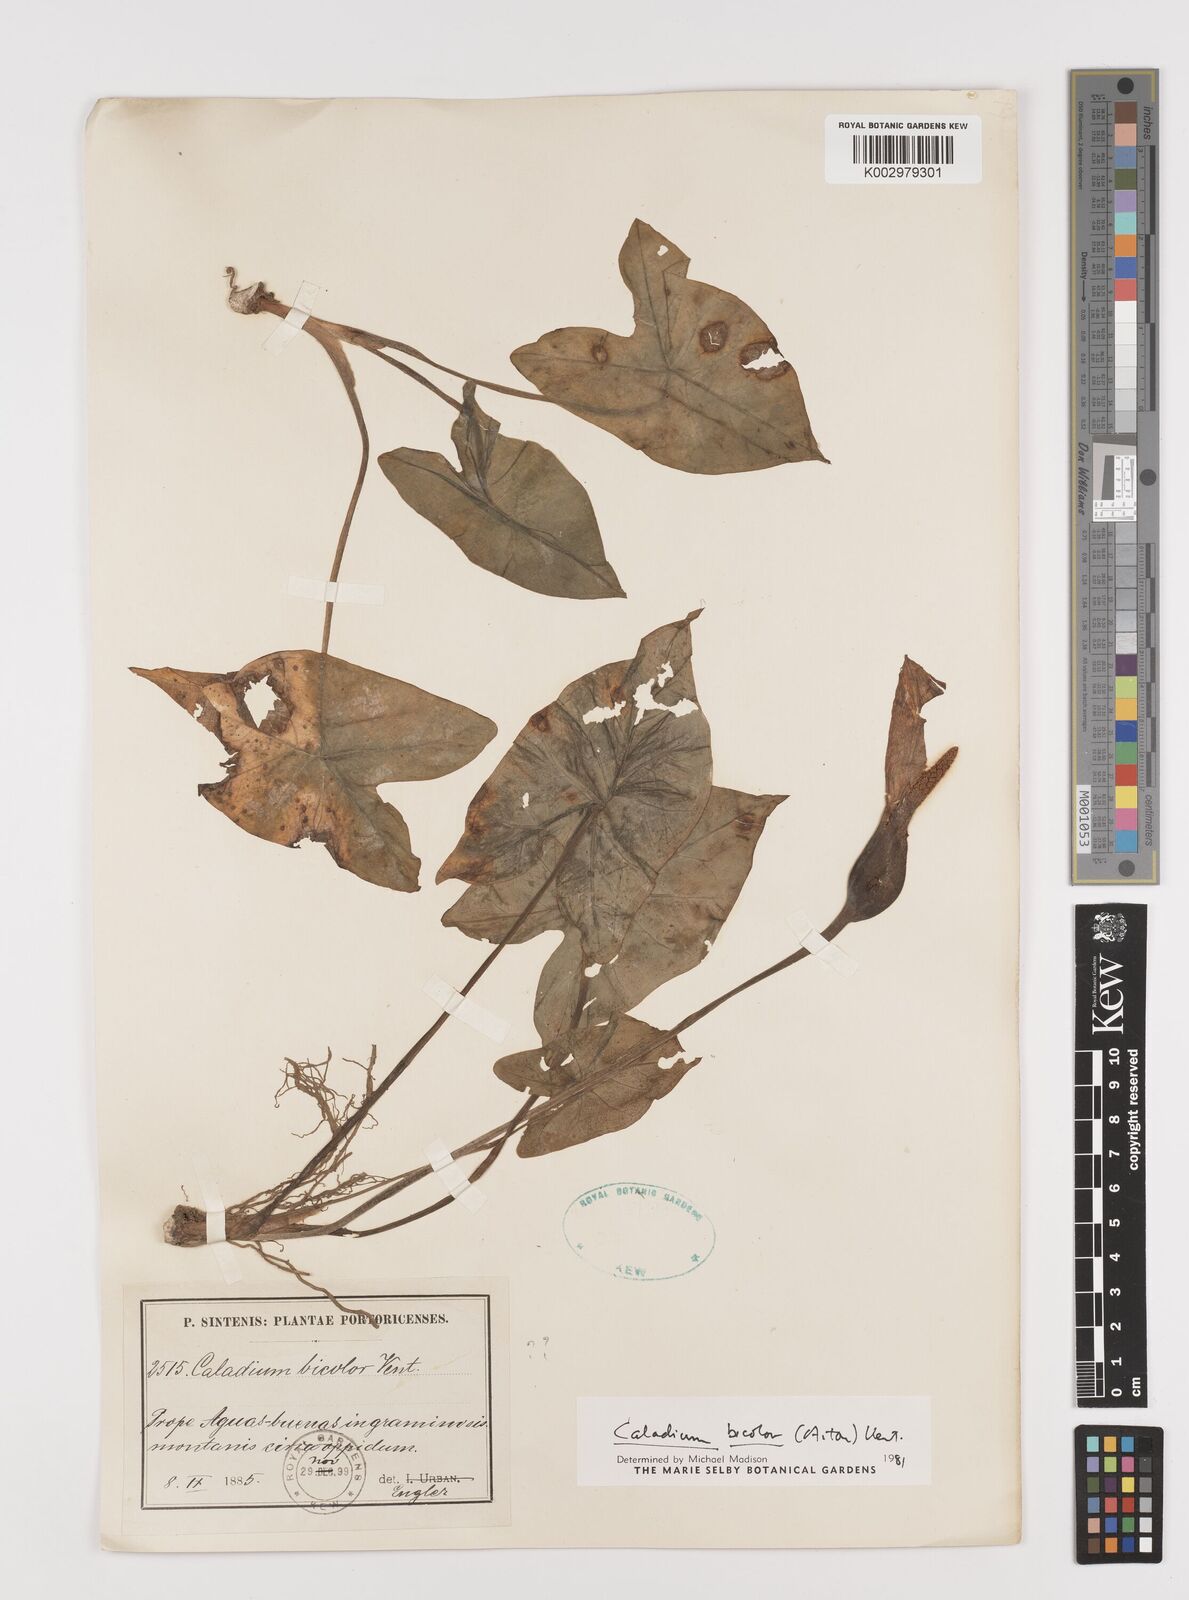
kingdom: Plantae
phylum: Tracheophyta
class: Liliopsida
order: Alismatales
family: Araceae
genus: Caladium
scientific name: Caladium bicolor
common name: Artist's pallet
